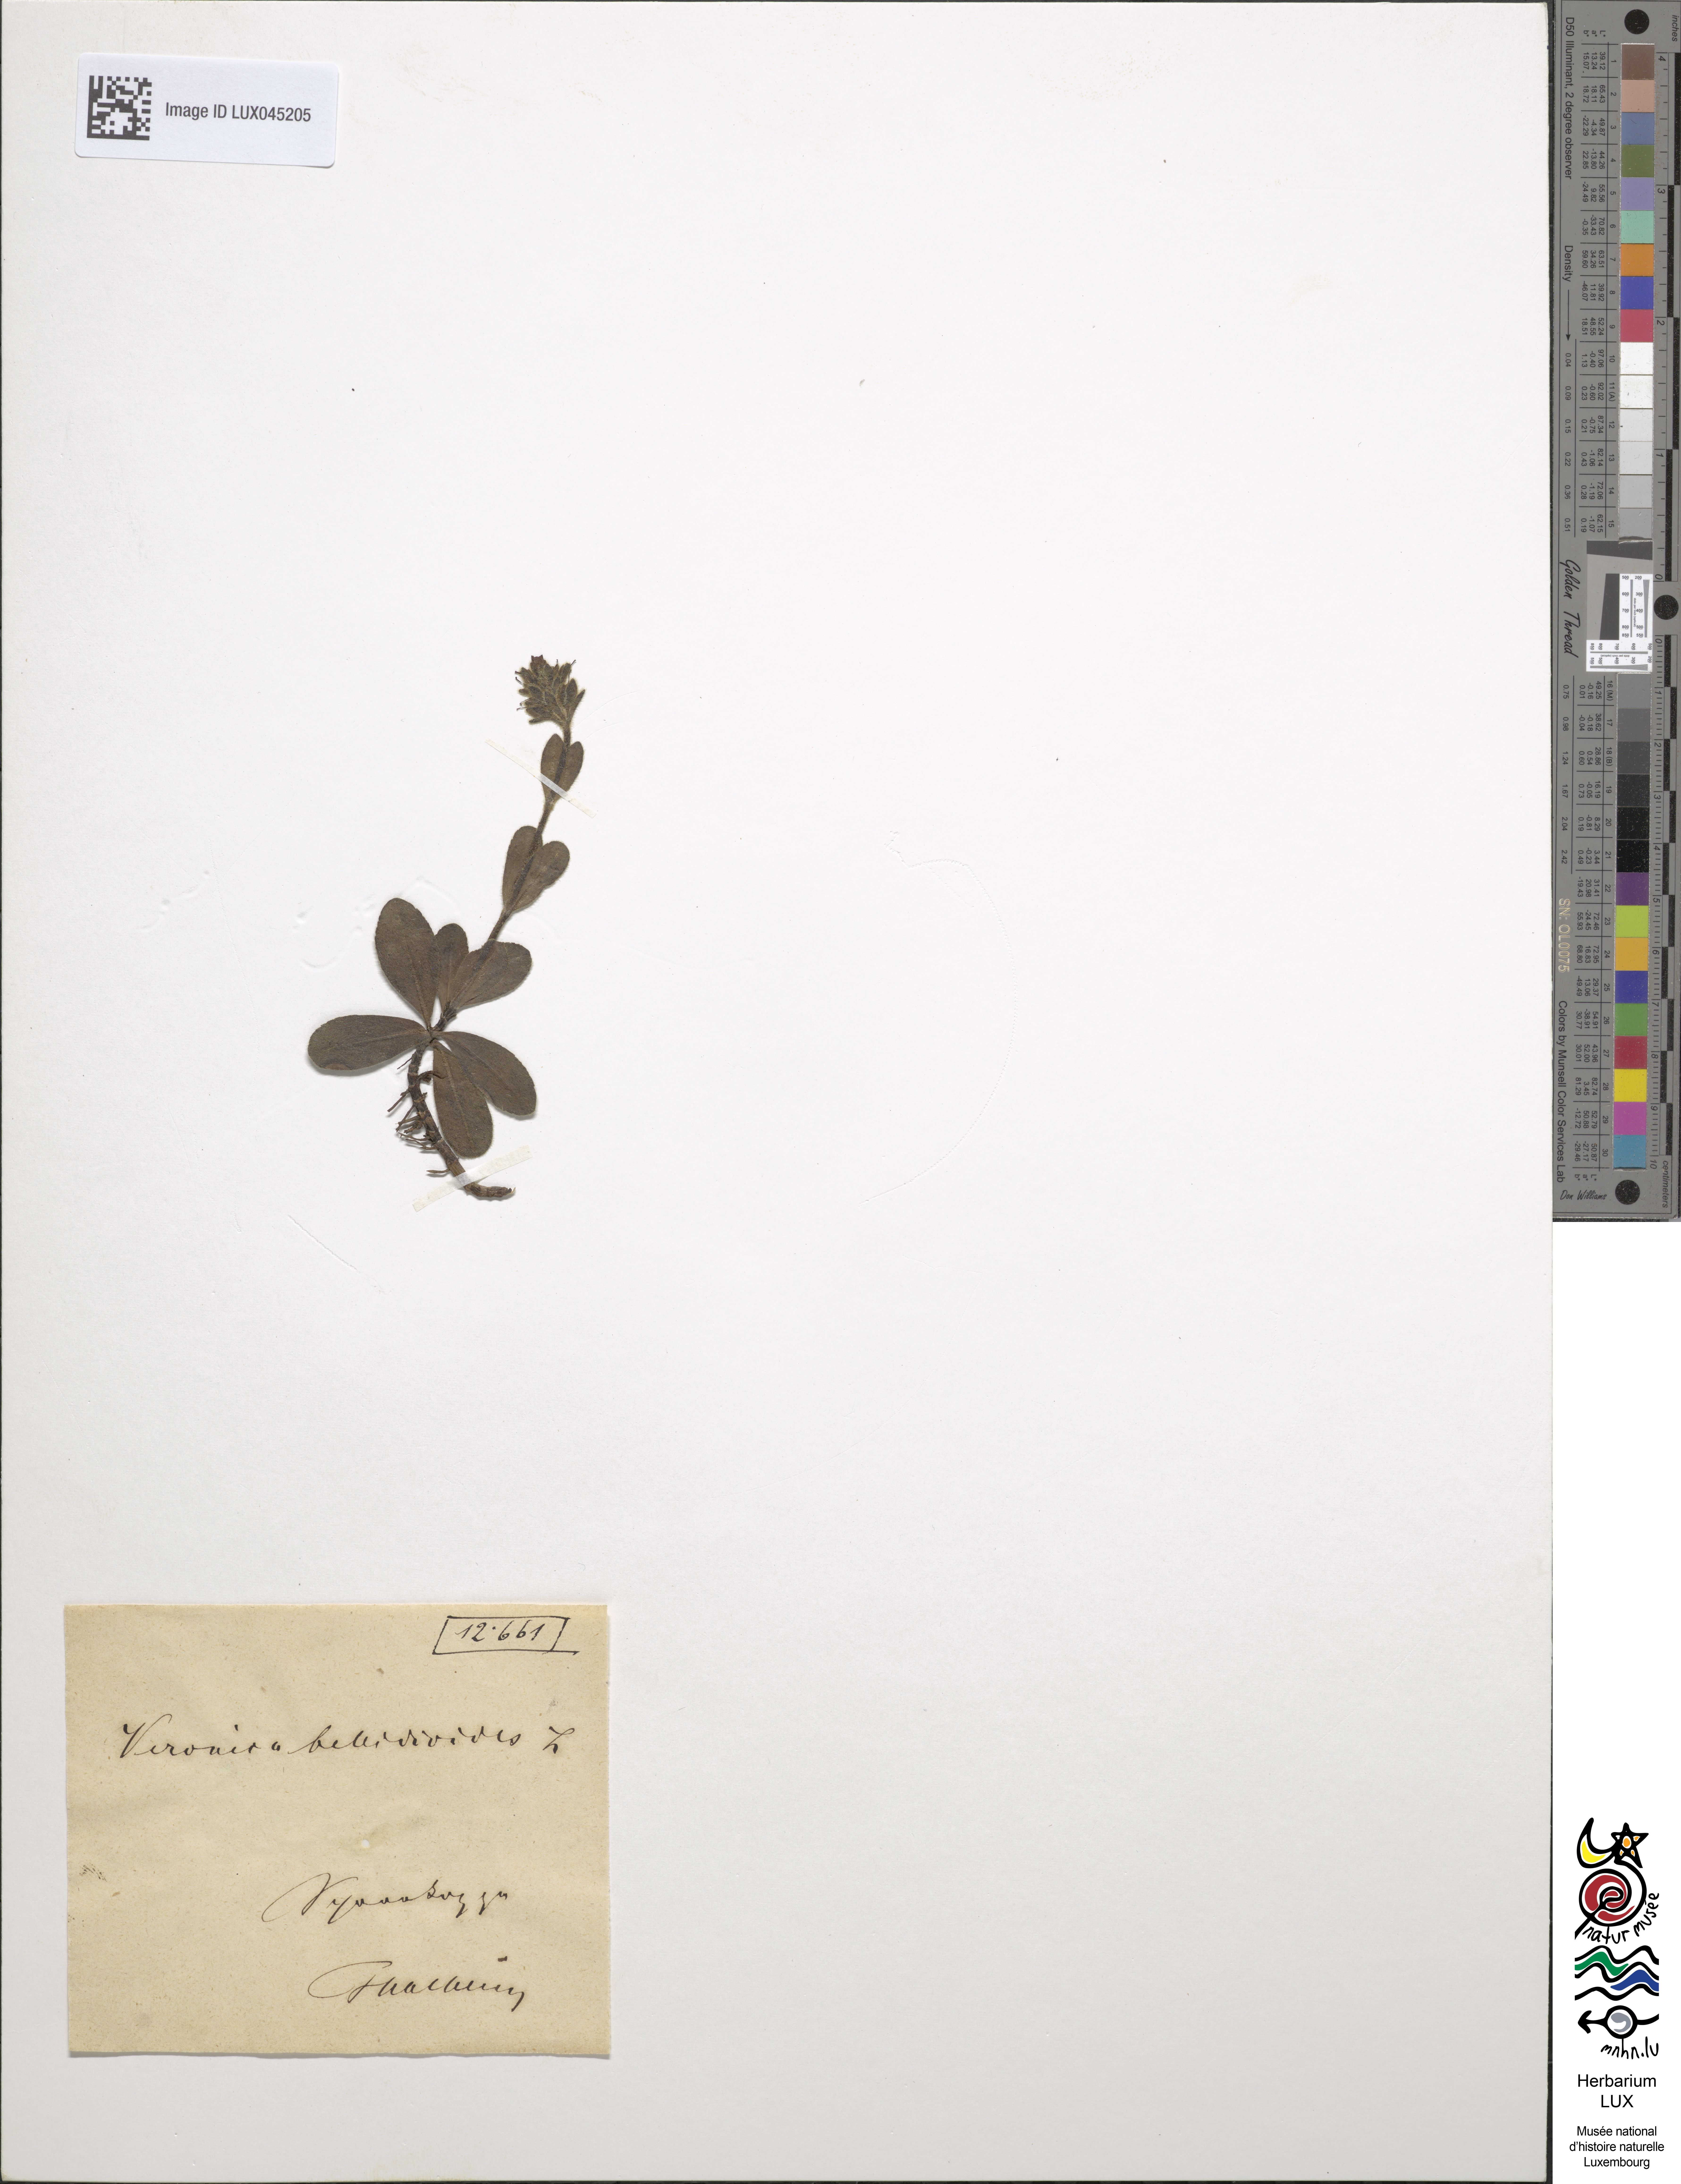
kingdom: Plantae
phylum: Tracheophyta
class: Magnoliopsida
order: Lamiales
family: Plantaginaceae
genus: Veronica
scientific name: Veronica bellidioides
